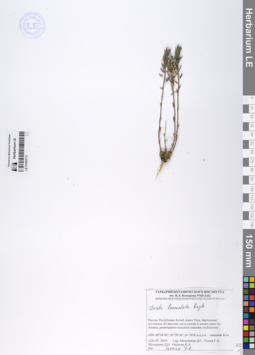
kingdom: Plantae
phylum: Tracheophyta
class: Magnoliopsida
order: Brassicales
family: Brassicaceae
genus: Draba
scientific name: Draba lanceolata
